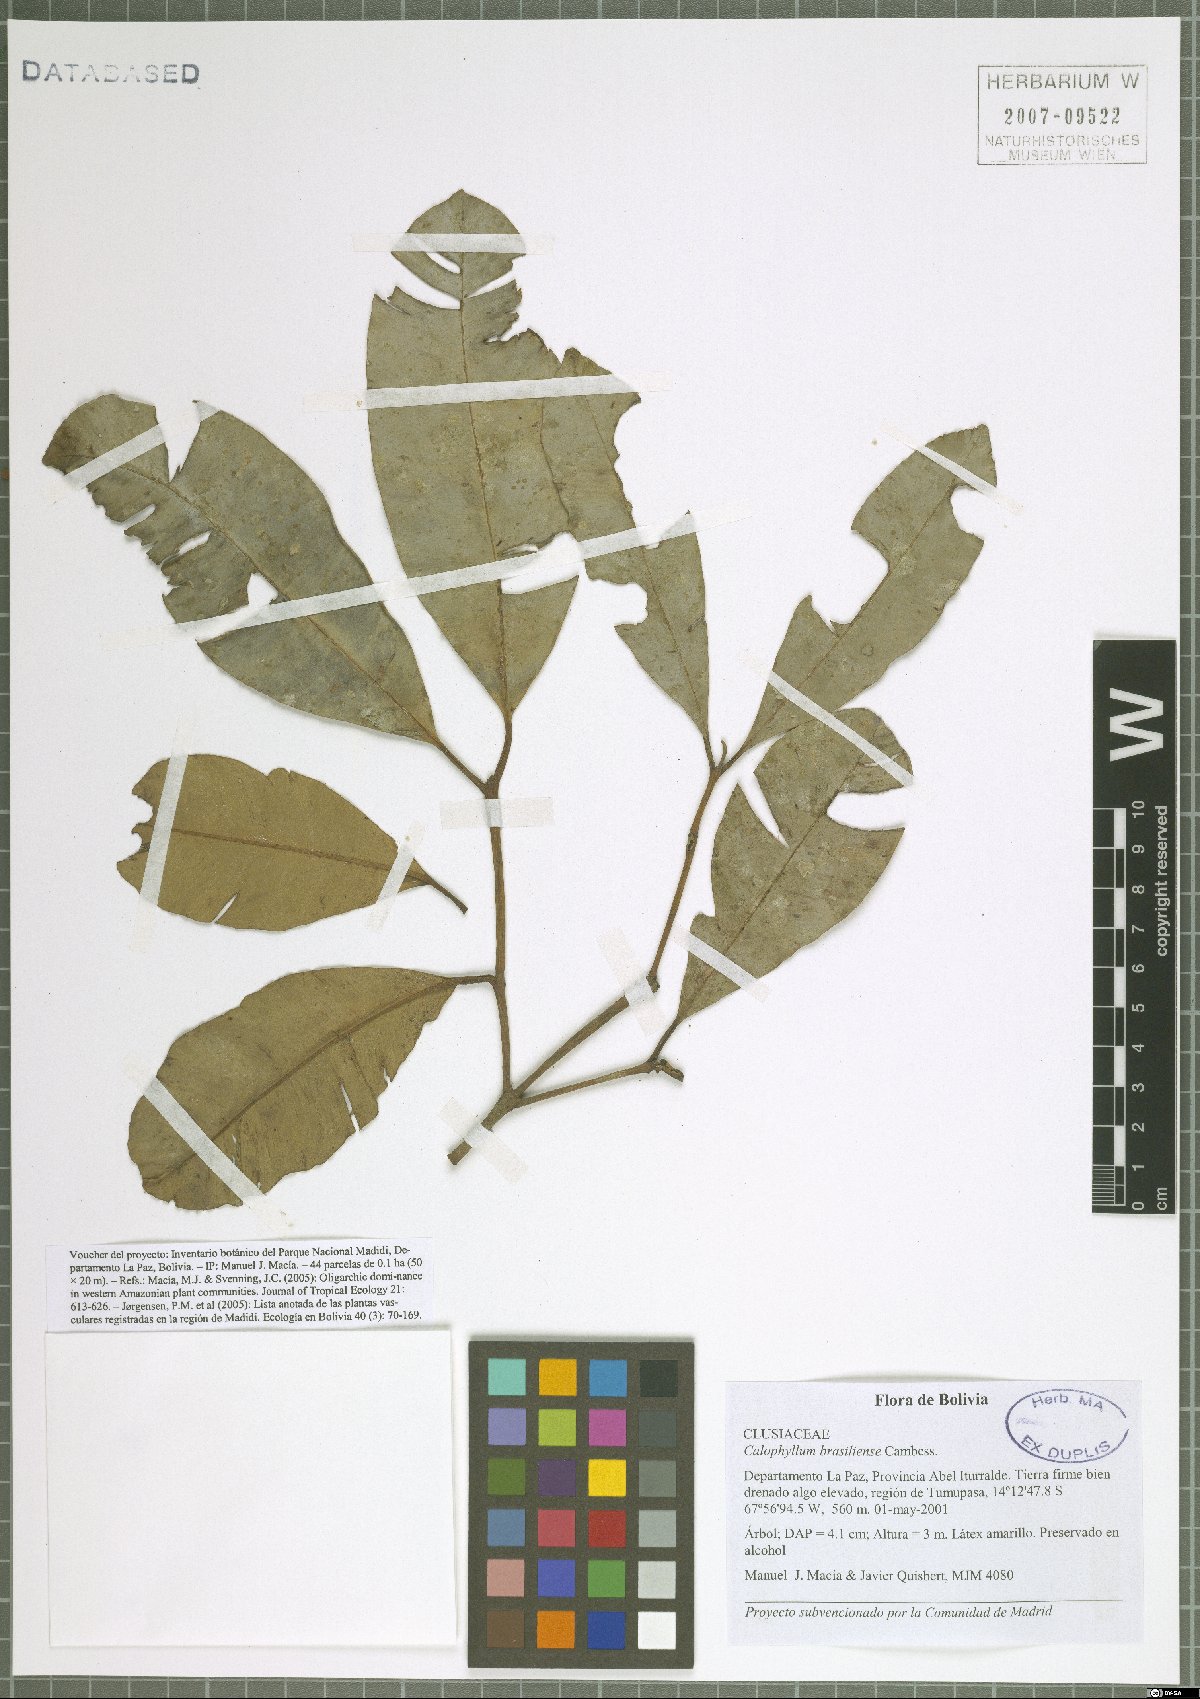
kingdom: Plantae
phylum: Tracheophyta
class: Magnoliopsida
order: Malpighiales
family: Calophyllaceae
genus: Calophyllum
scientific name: Calophyllum brasiliense
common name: Santa maria
